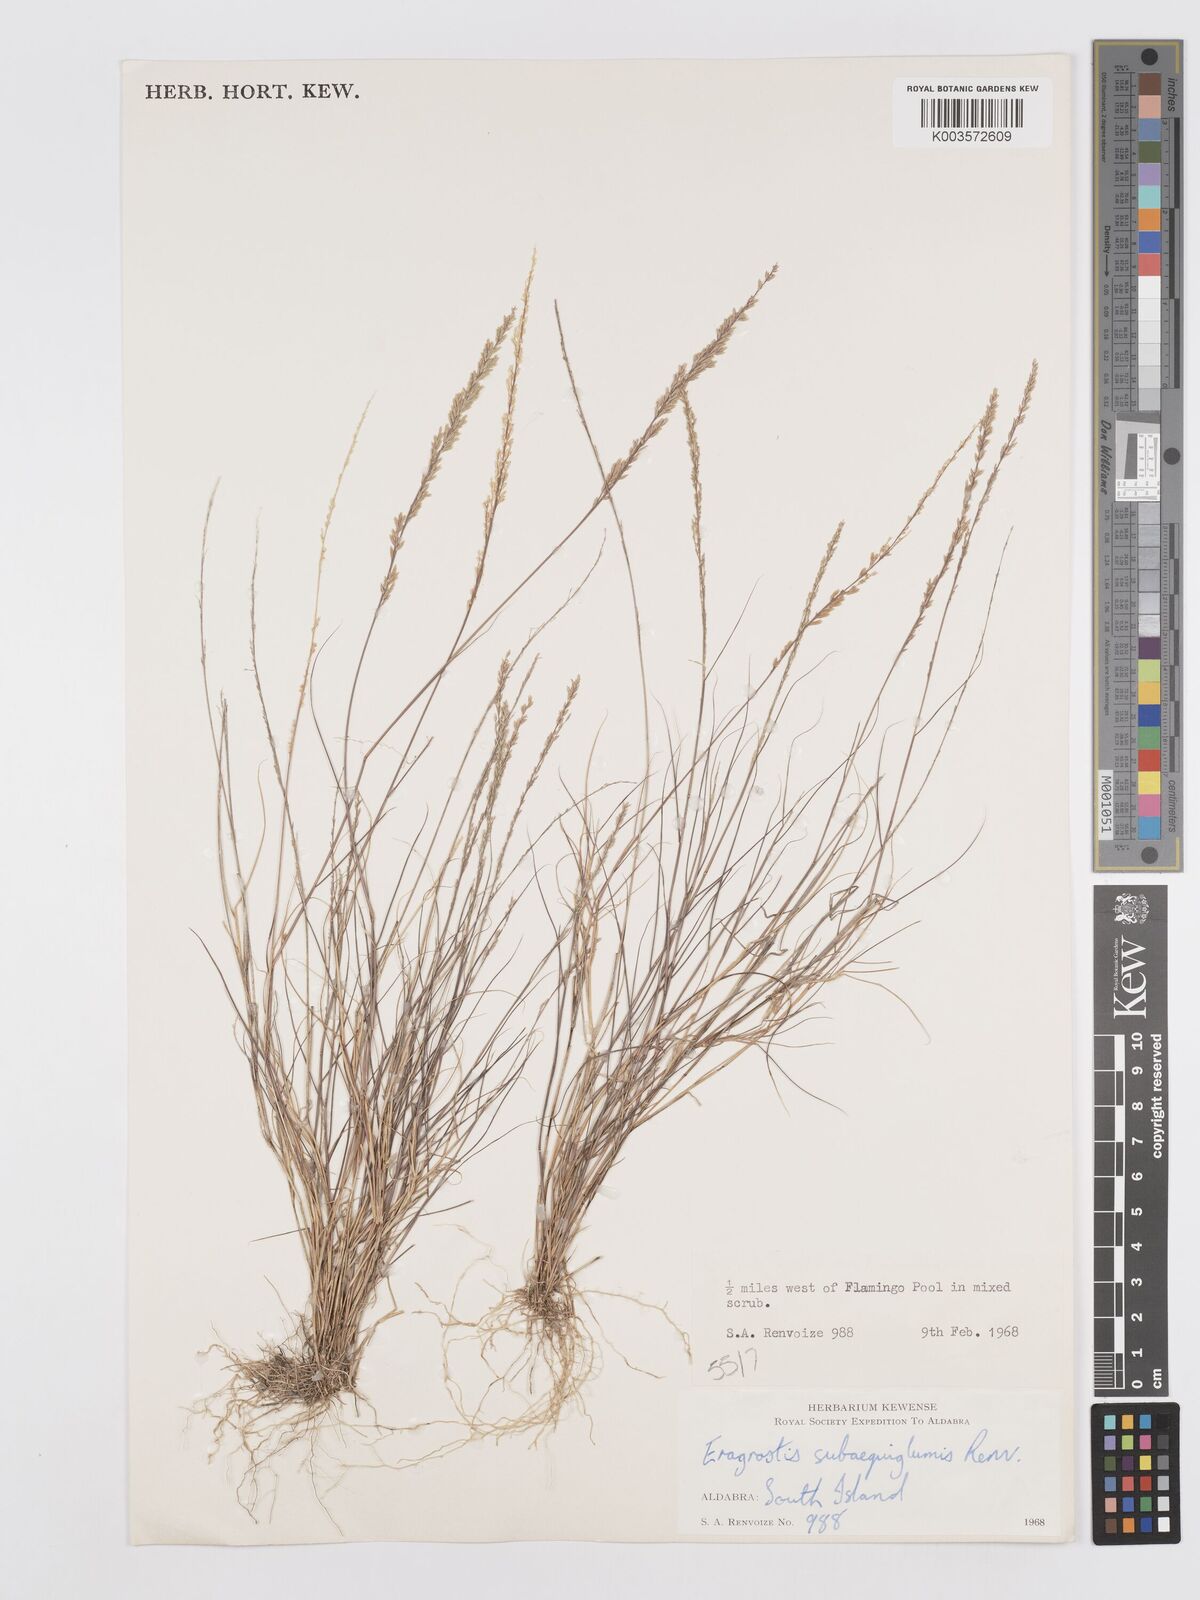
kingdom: Plantae
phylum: Tracheophyta
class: Liliopsida
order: Poales
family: Poaceae
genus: Eragrostis
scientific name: Eragrostis subaequiglumis
